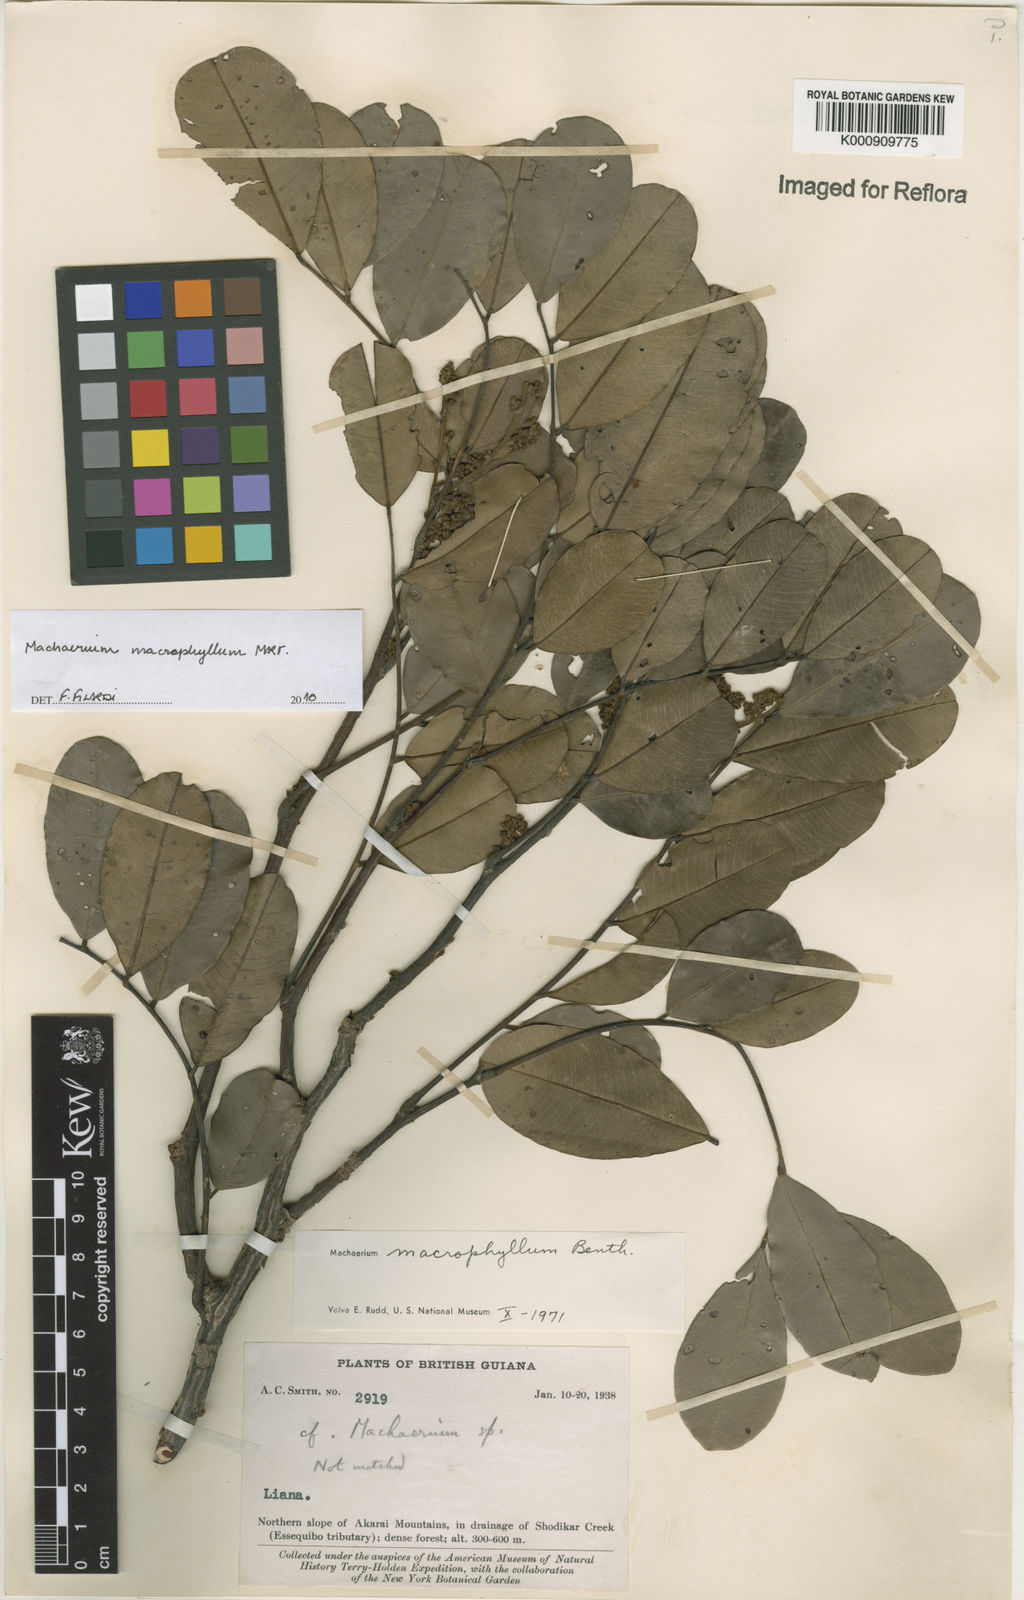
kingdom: Plantae
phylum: Tracheophyta
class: Magnoliopsida
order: Fabales
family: Fabaceae
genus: Machaerium
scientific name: Machaerium macrophyllum
